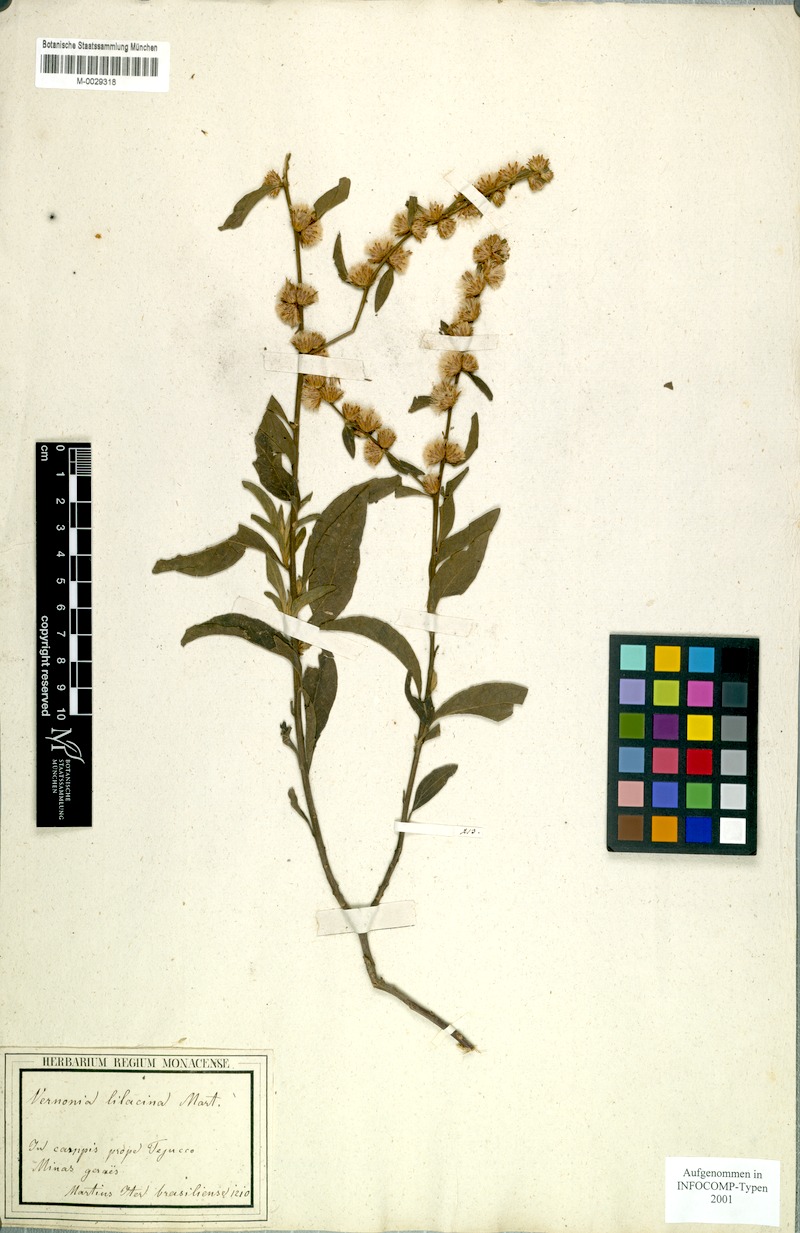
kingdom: Plantae
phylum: Tracheophyta
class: Magnoliopsida
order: Asterales
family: Asteraceae
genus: Lepidaploa
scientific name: Lepidaploa lilacina
